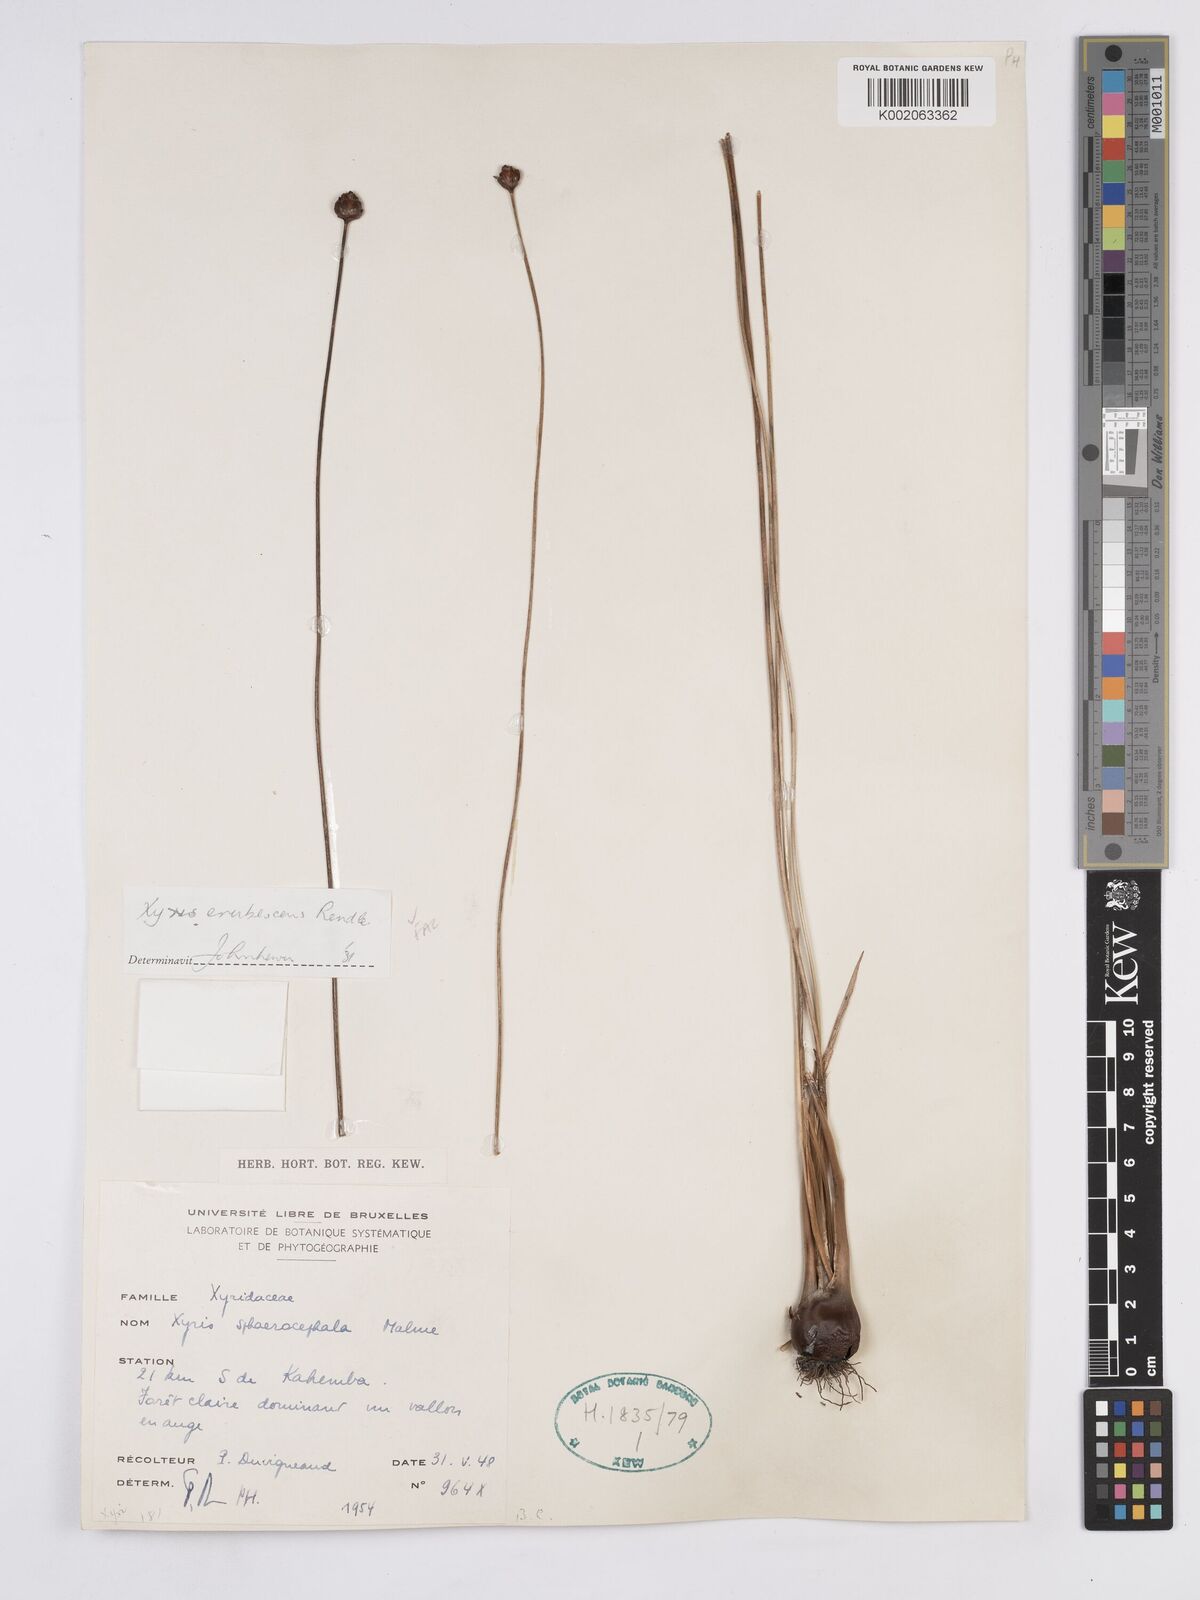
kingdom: Plantae
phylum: Tracheophyta
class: Liliopsida
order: Poales
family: Xyridaceae
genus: Xyris
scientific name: Xyris erubescens
